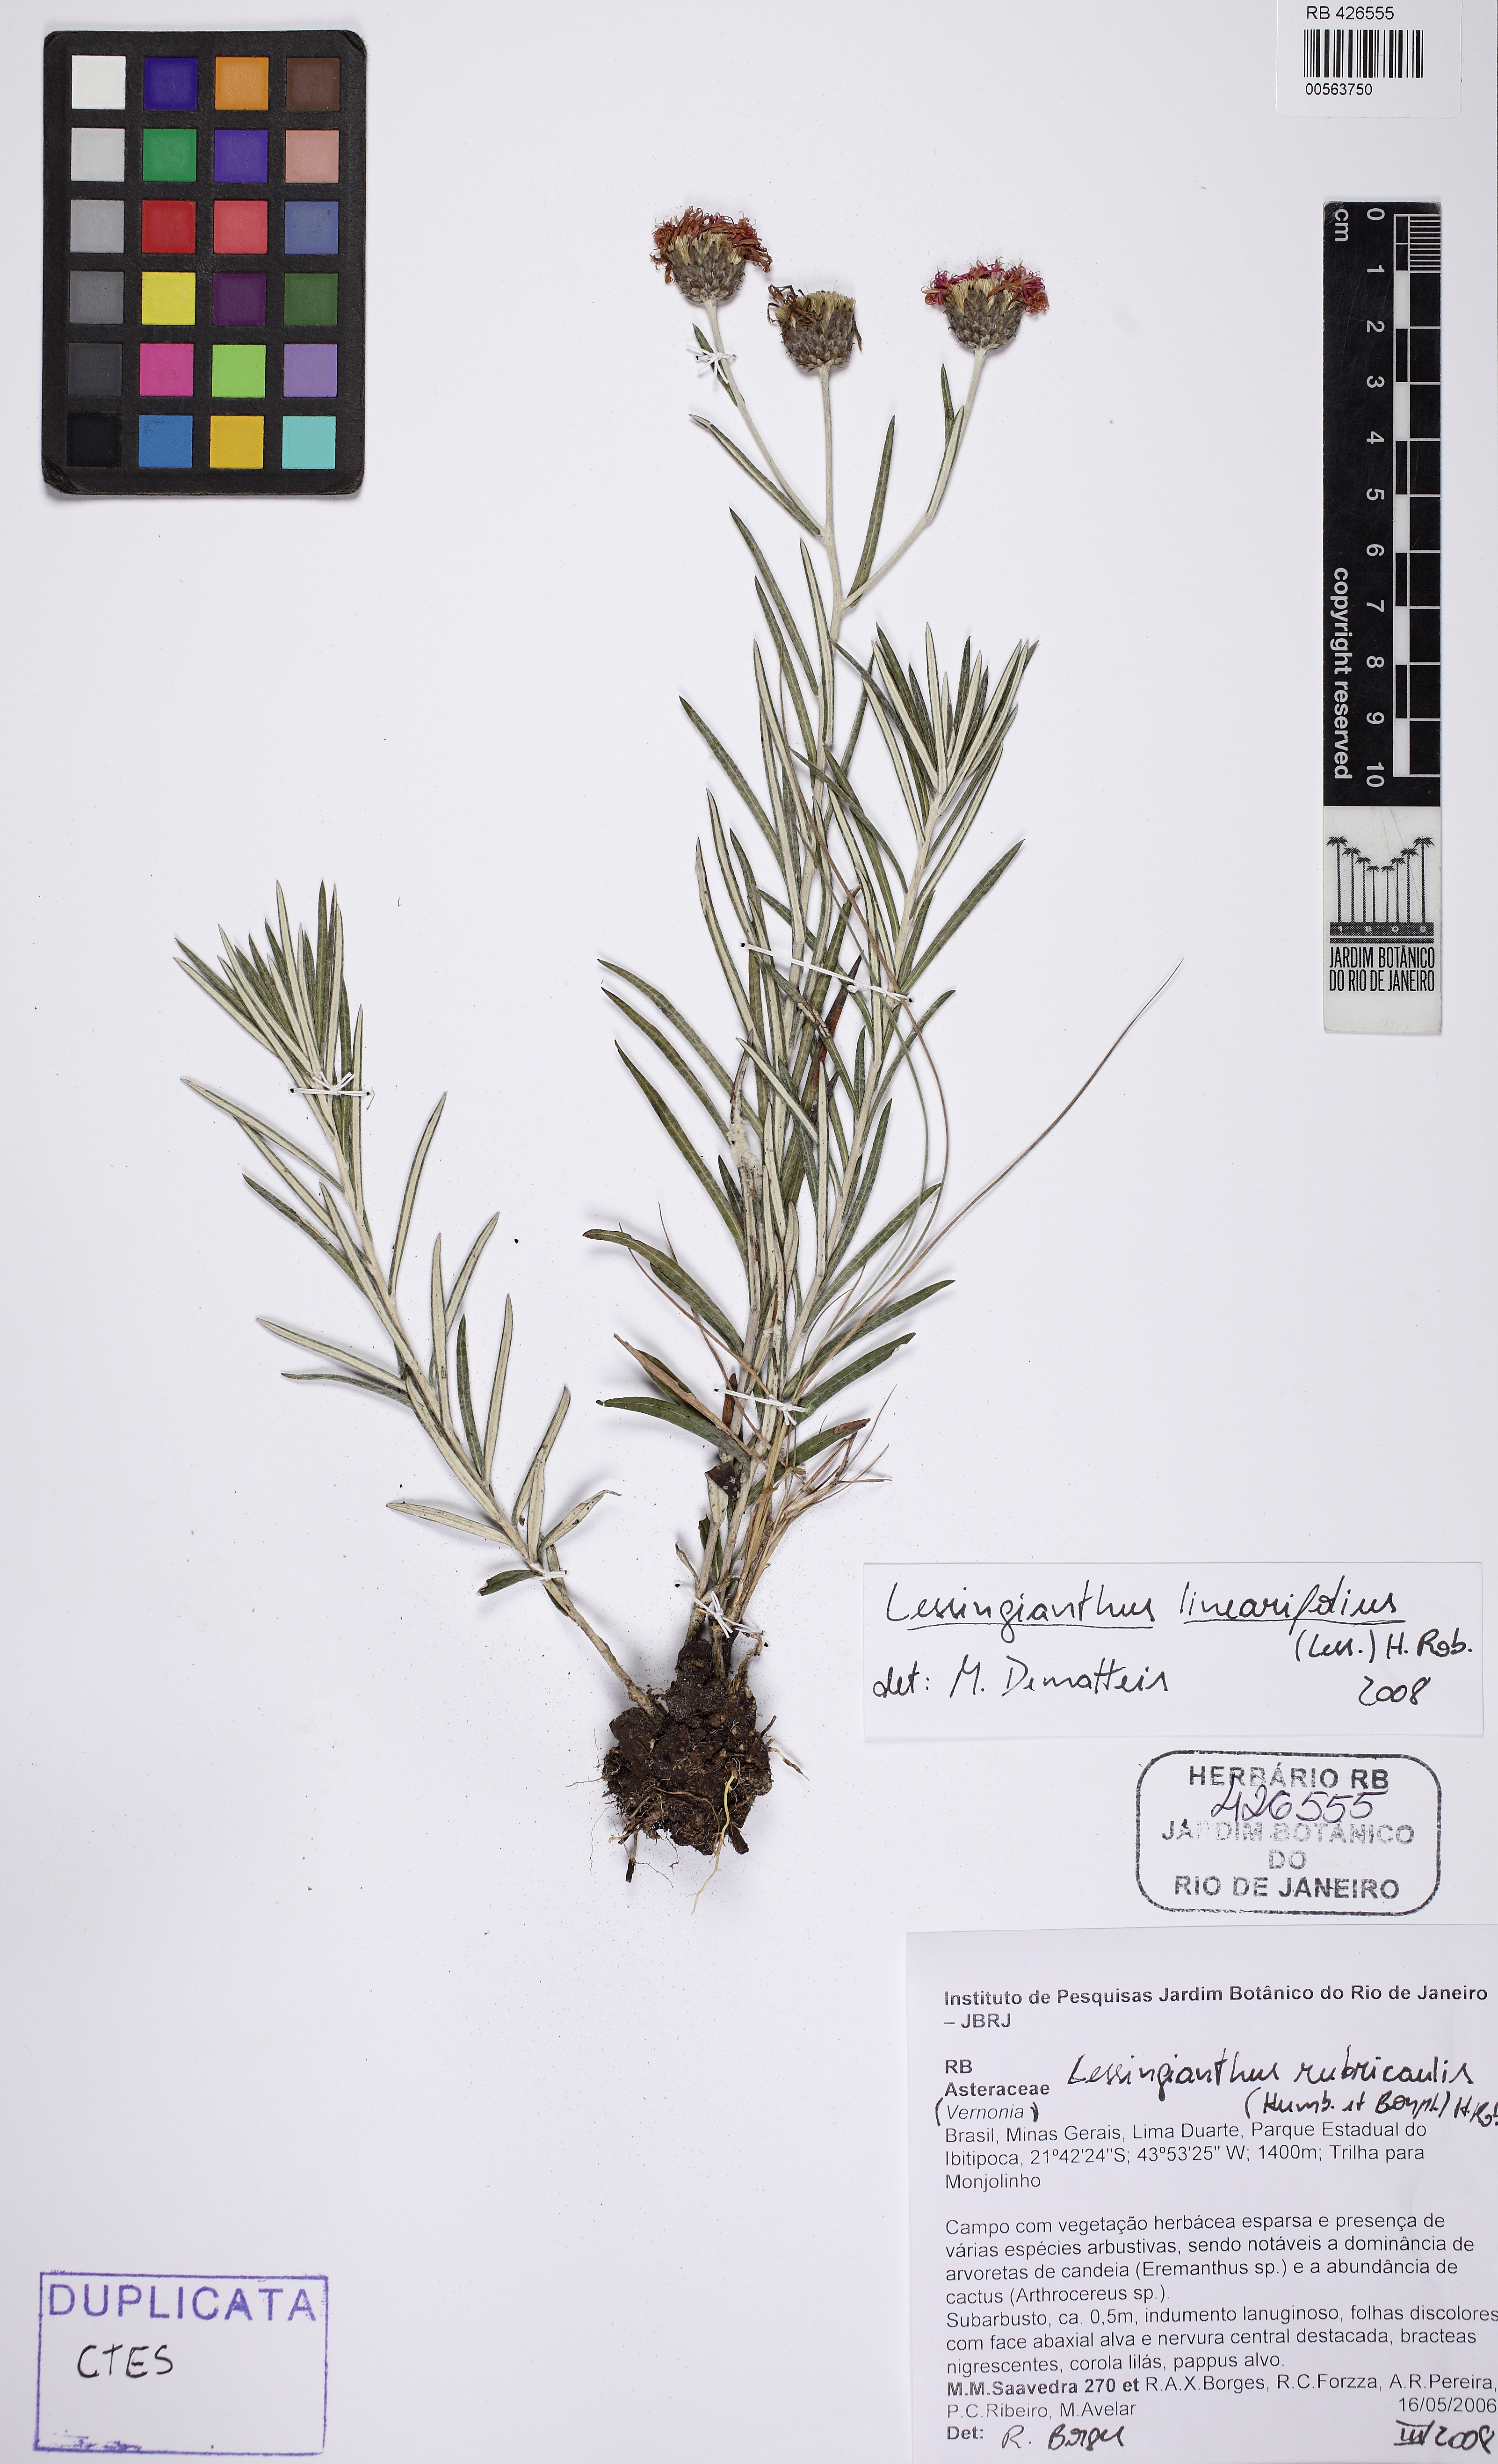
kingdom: Plantae
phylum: Tracheophyta
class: Magnoliopsida
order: Asterales
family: Asteraceae
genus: Lessingianthus
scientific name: Lessingianthus linearifolius
